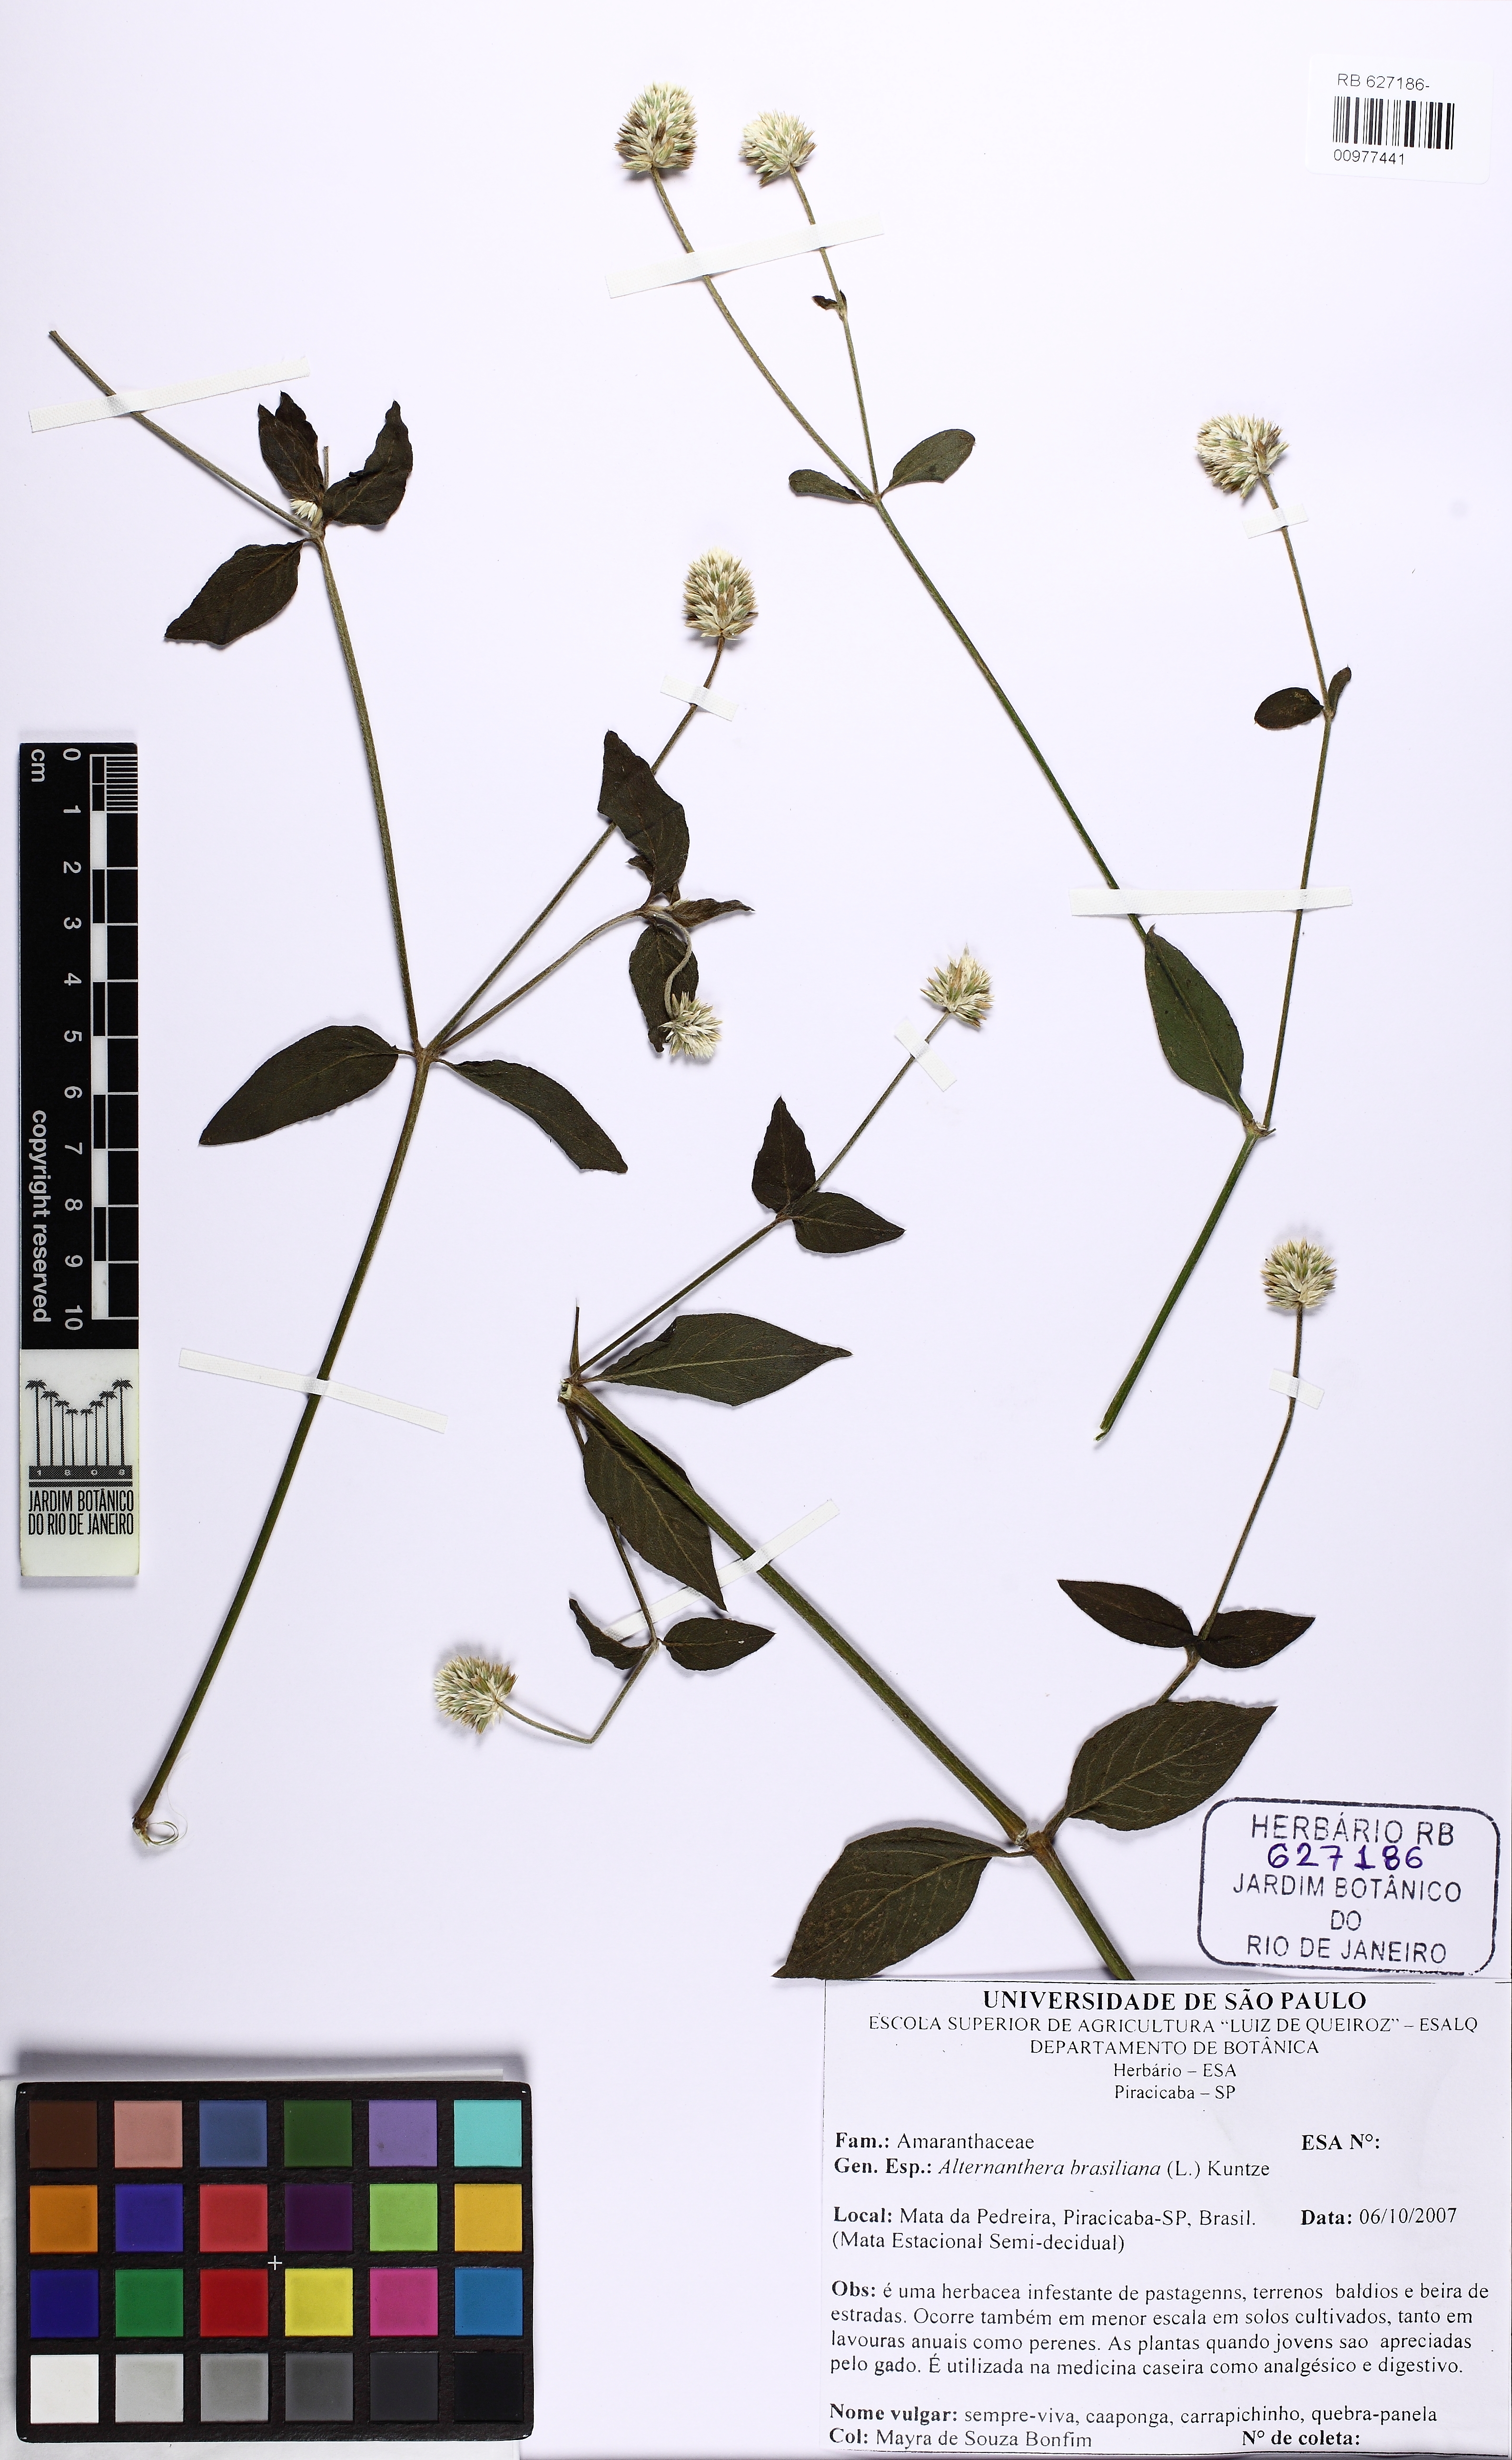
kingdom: Plantae
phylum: Tracheophyta
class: Magnoliopsida
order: Caryophyllales
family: Amaranthaceae
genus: Alternanthera
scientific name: Alternanthera brasiliana
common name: Brazilian joyweed
